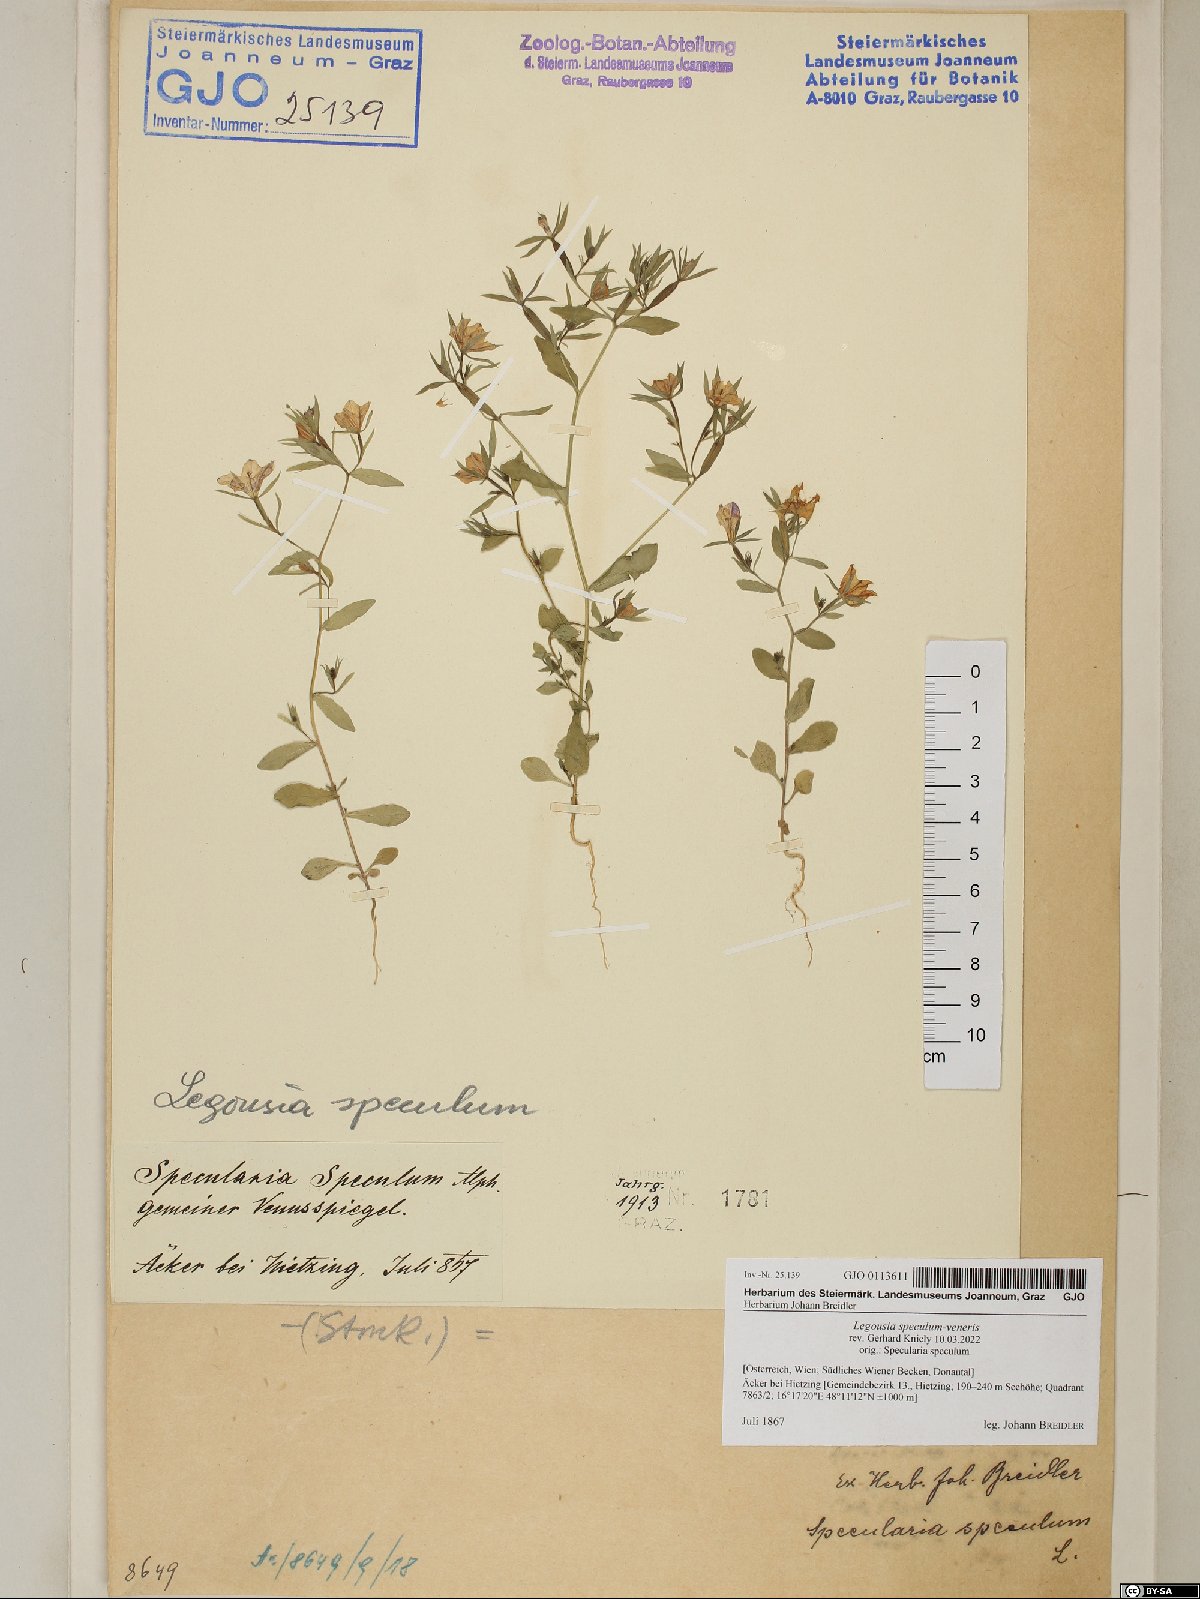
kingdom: Plantae
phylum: Tracheophyta
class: Magnoliopsida
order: Asterales
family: Campanulaceae
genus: Legousia
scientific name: Legousia speculum-veneris
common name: Large venus's-looking-glass
